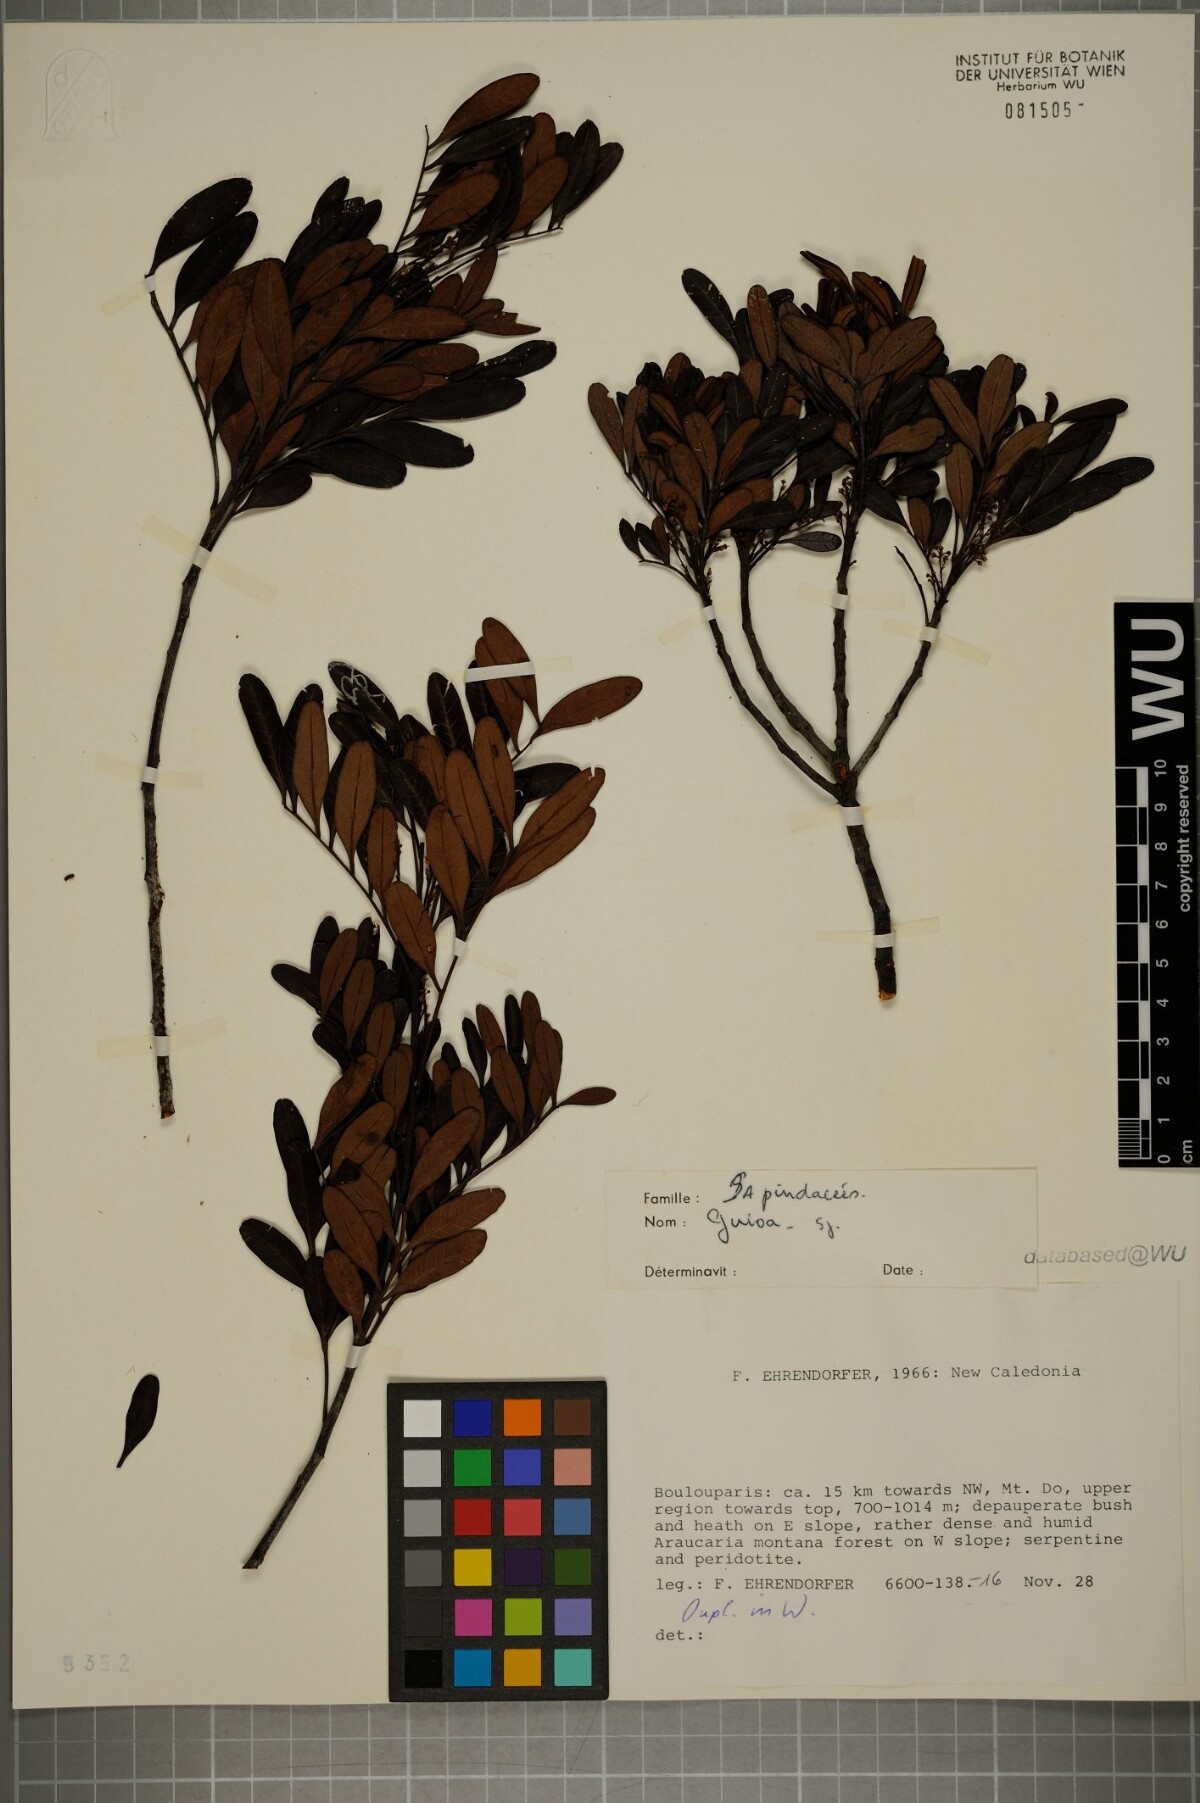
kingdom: Plantae
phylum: Tracheophyta
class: Magnoliopsida
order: Sapindales
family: Sapindaceae
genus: Guioa
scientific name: Guioa
